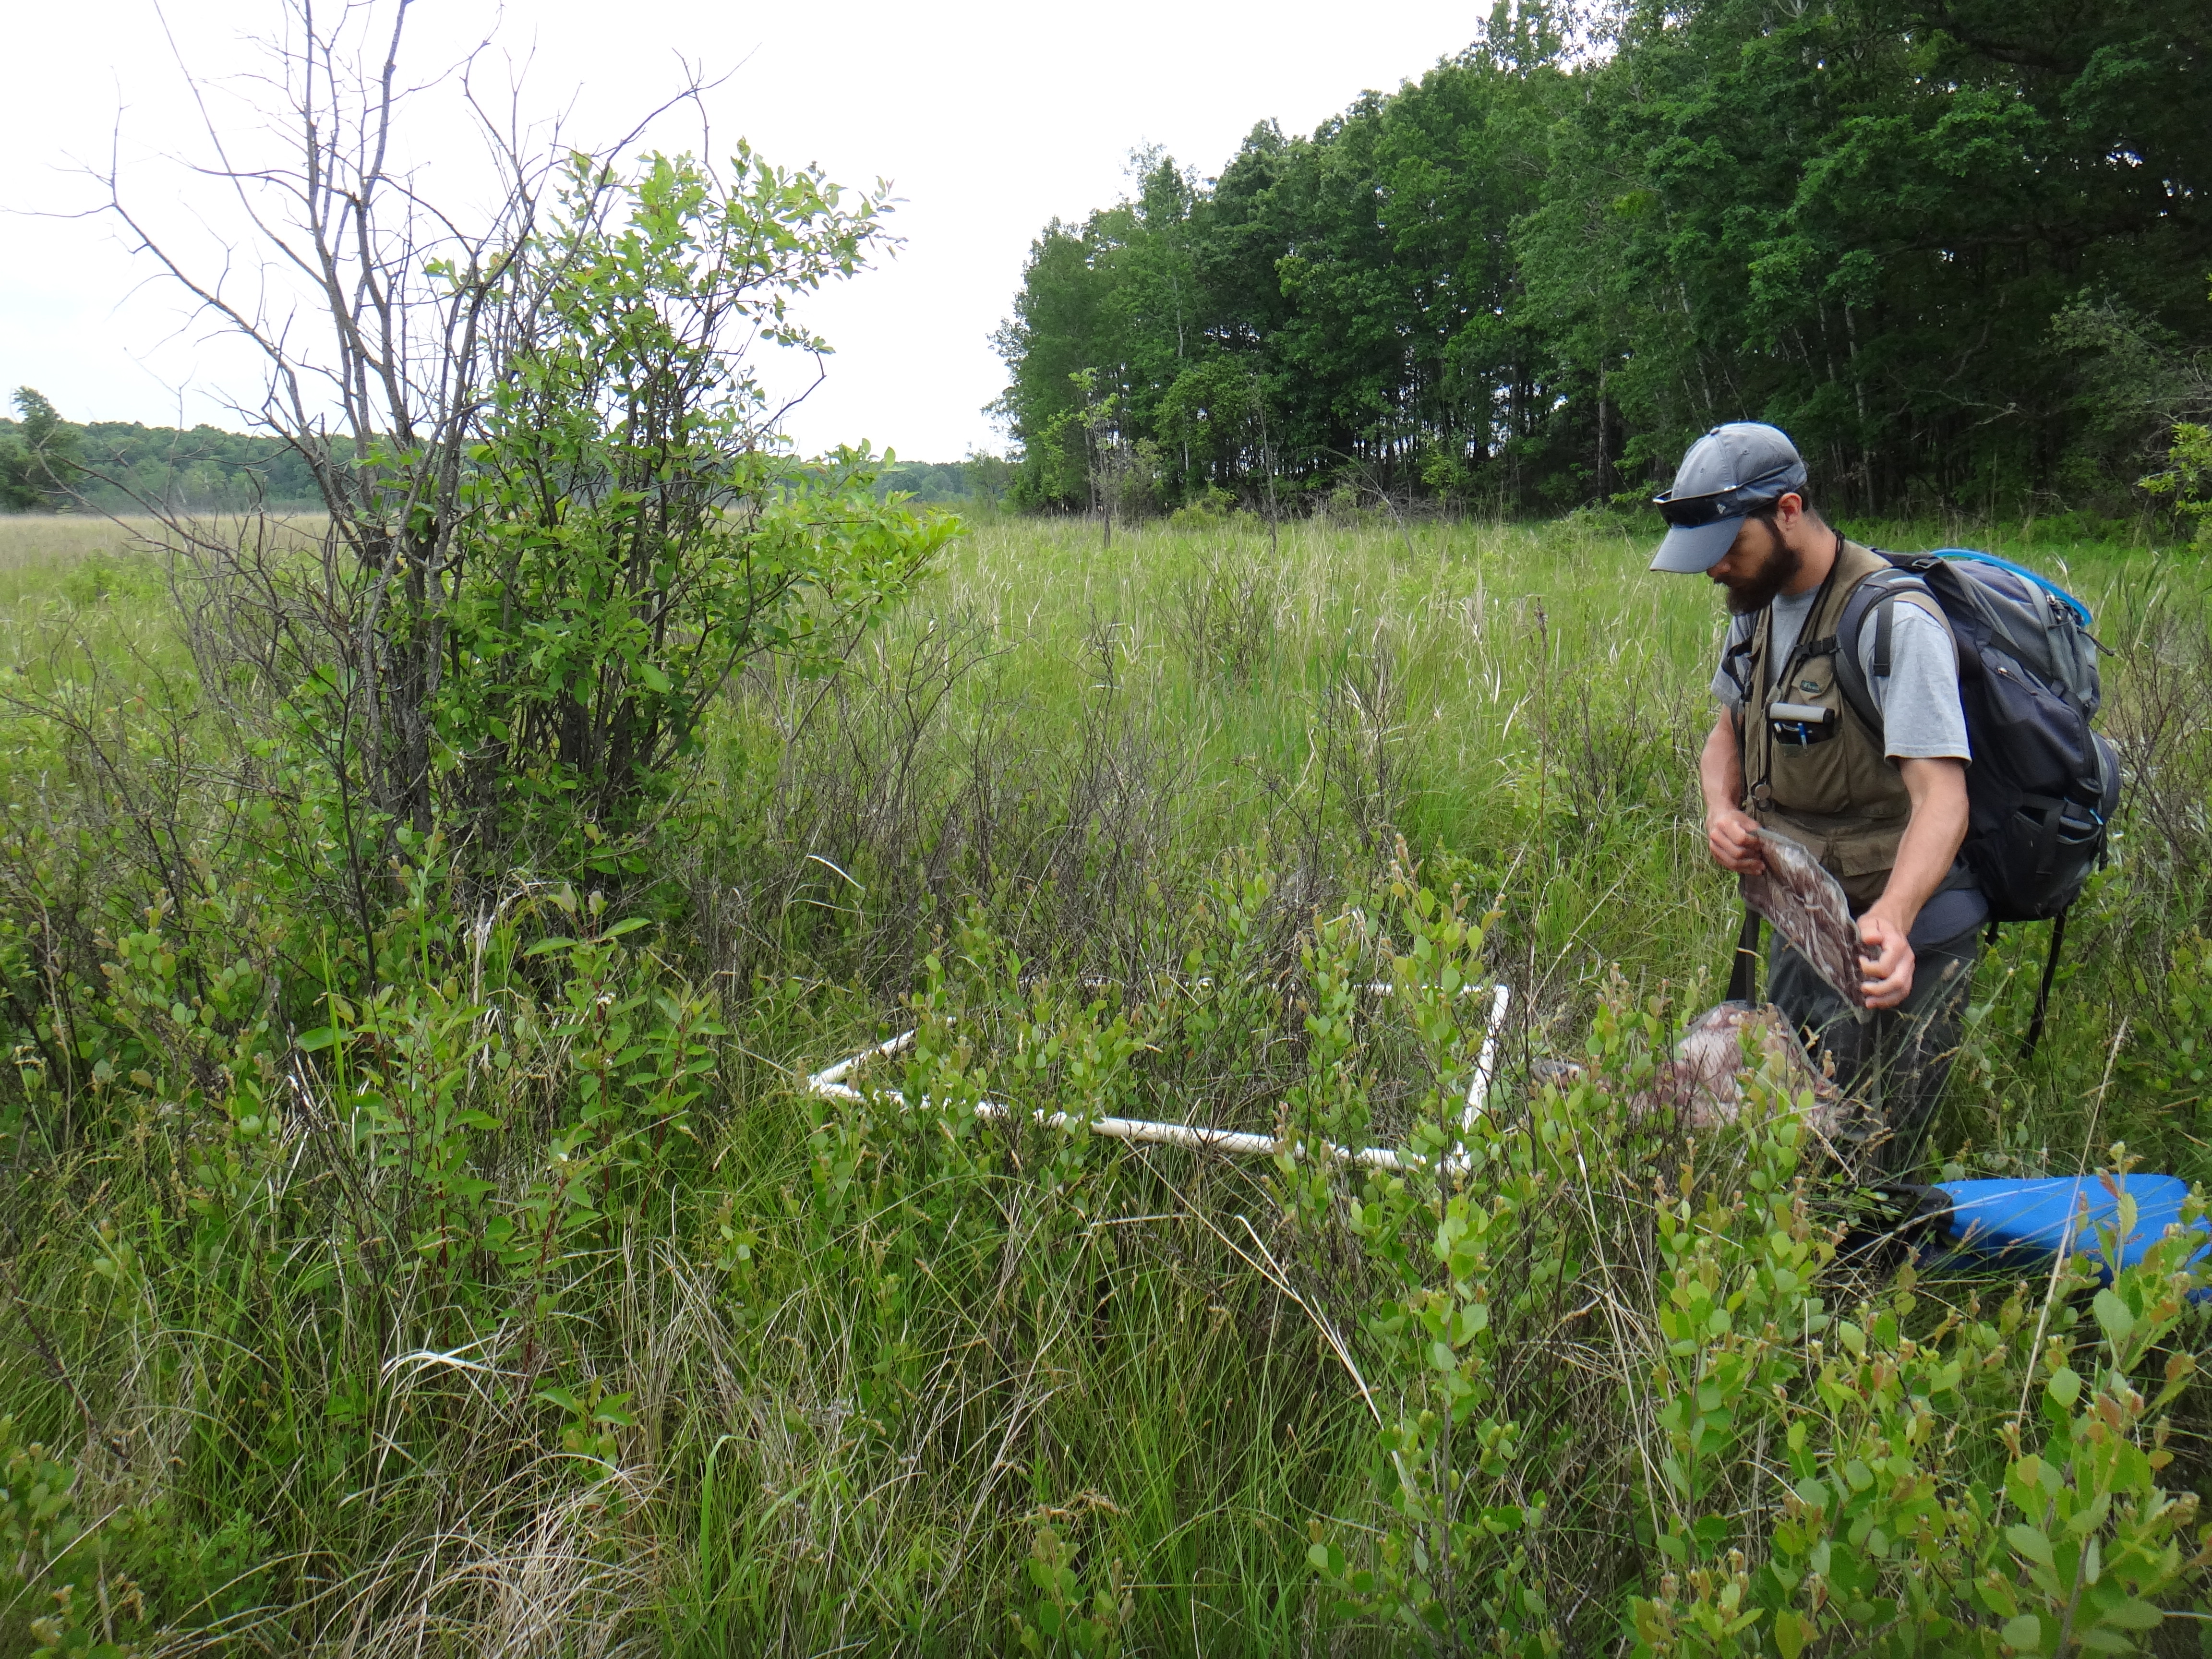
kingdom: Plantae
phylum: Tracheophyta
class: Magnoliopsida
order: Asterales
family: Asteraceae
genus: Solidago
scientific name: Solidago uliginosa
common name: Bog goldenrod
